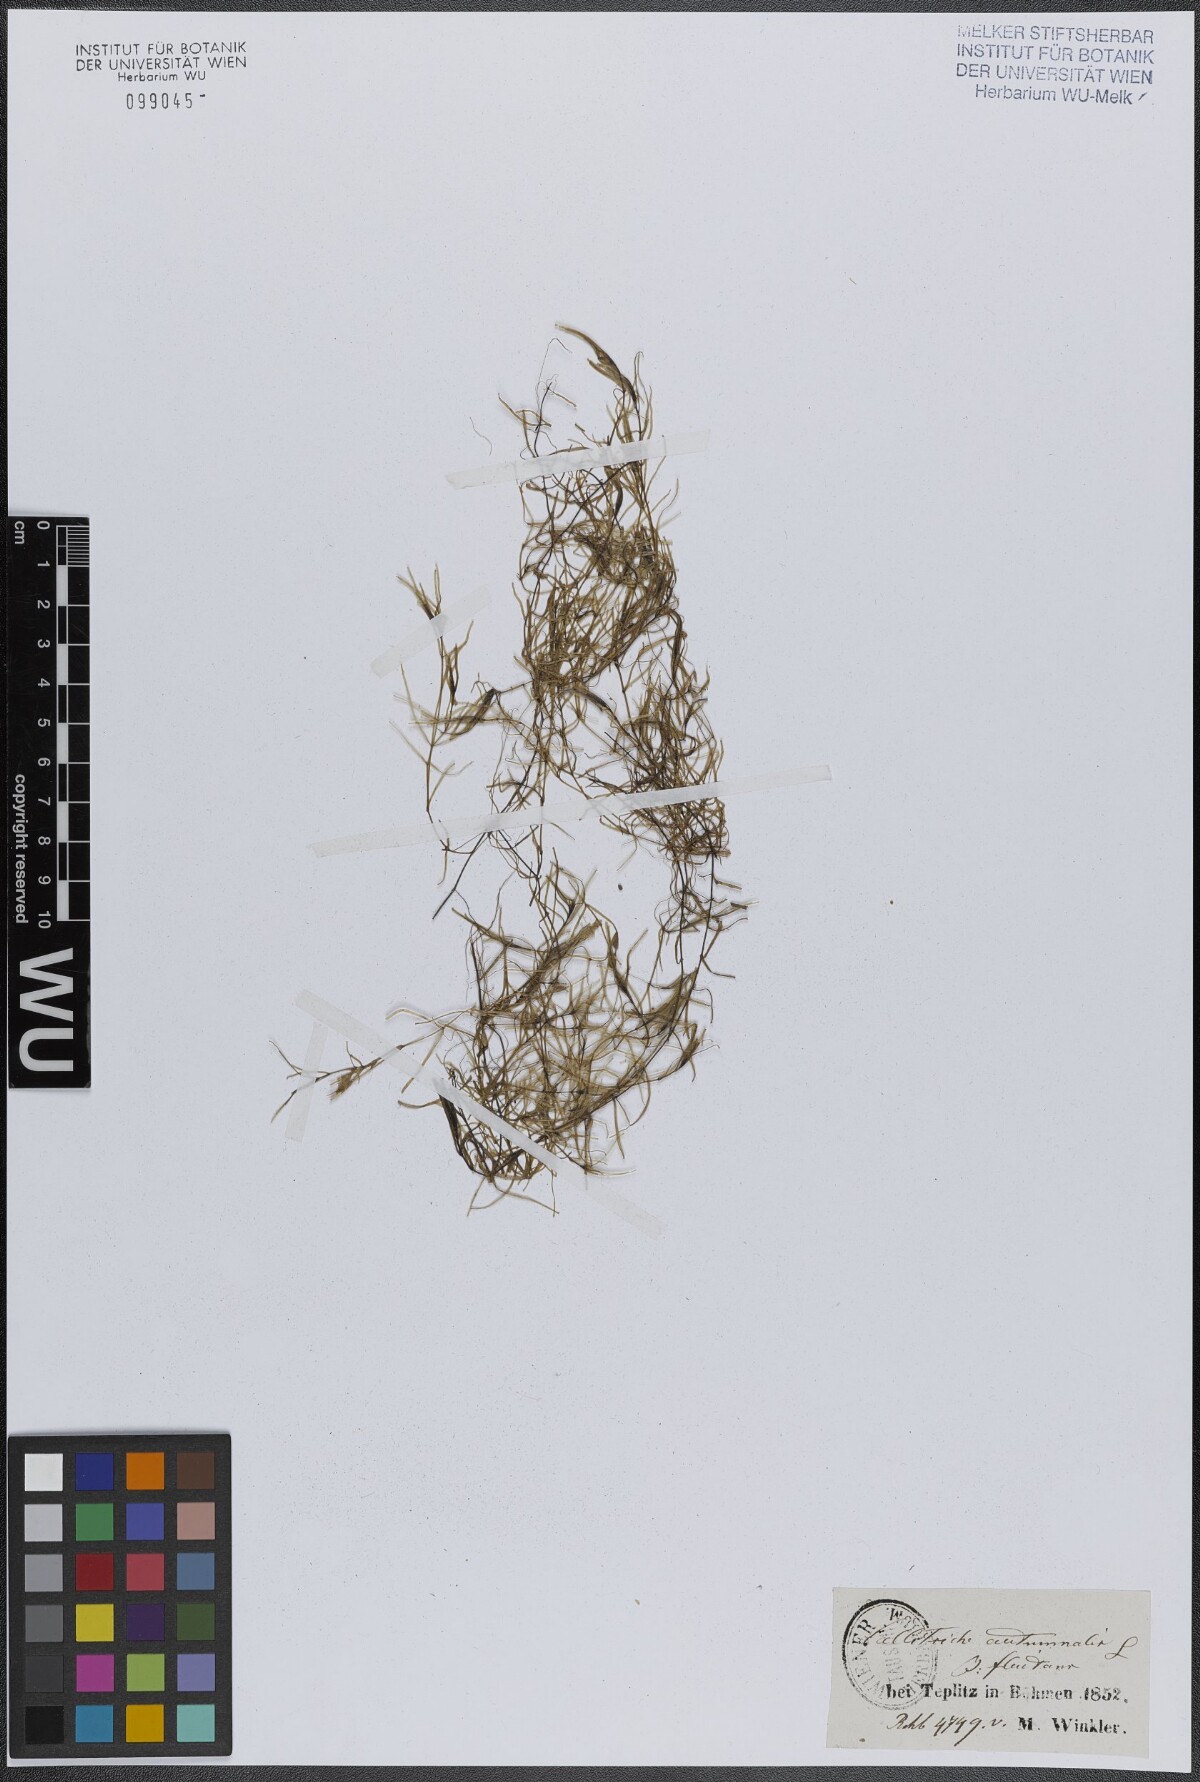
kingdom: Plantae
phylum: Tracheophyta
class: Magnoliopsida
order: Lamiales
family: Plantaginaceae
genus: Callitriche
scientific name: Callitriche hamulata
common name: Intermediate water-starwort
